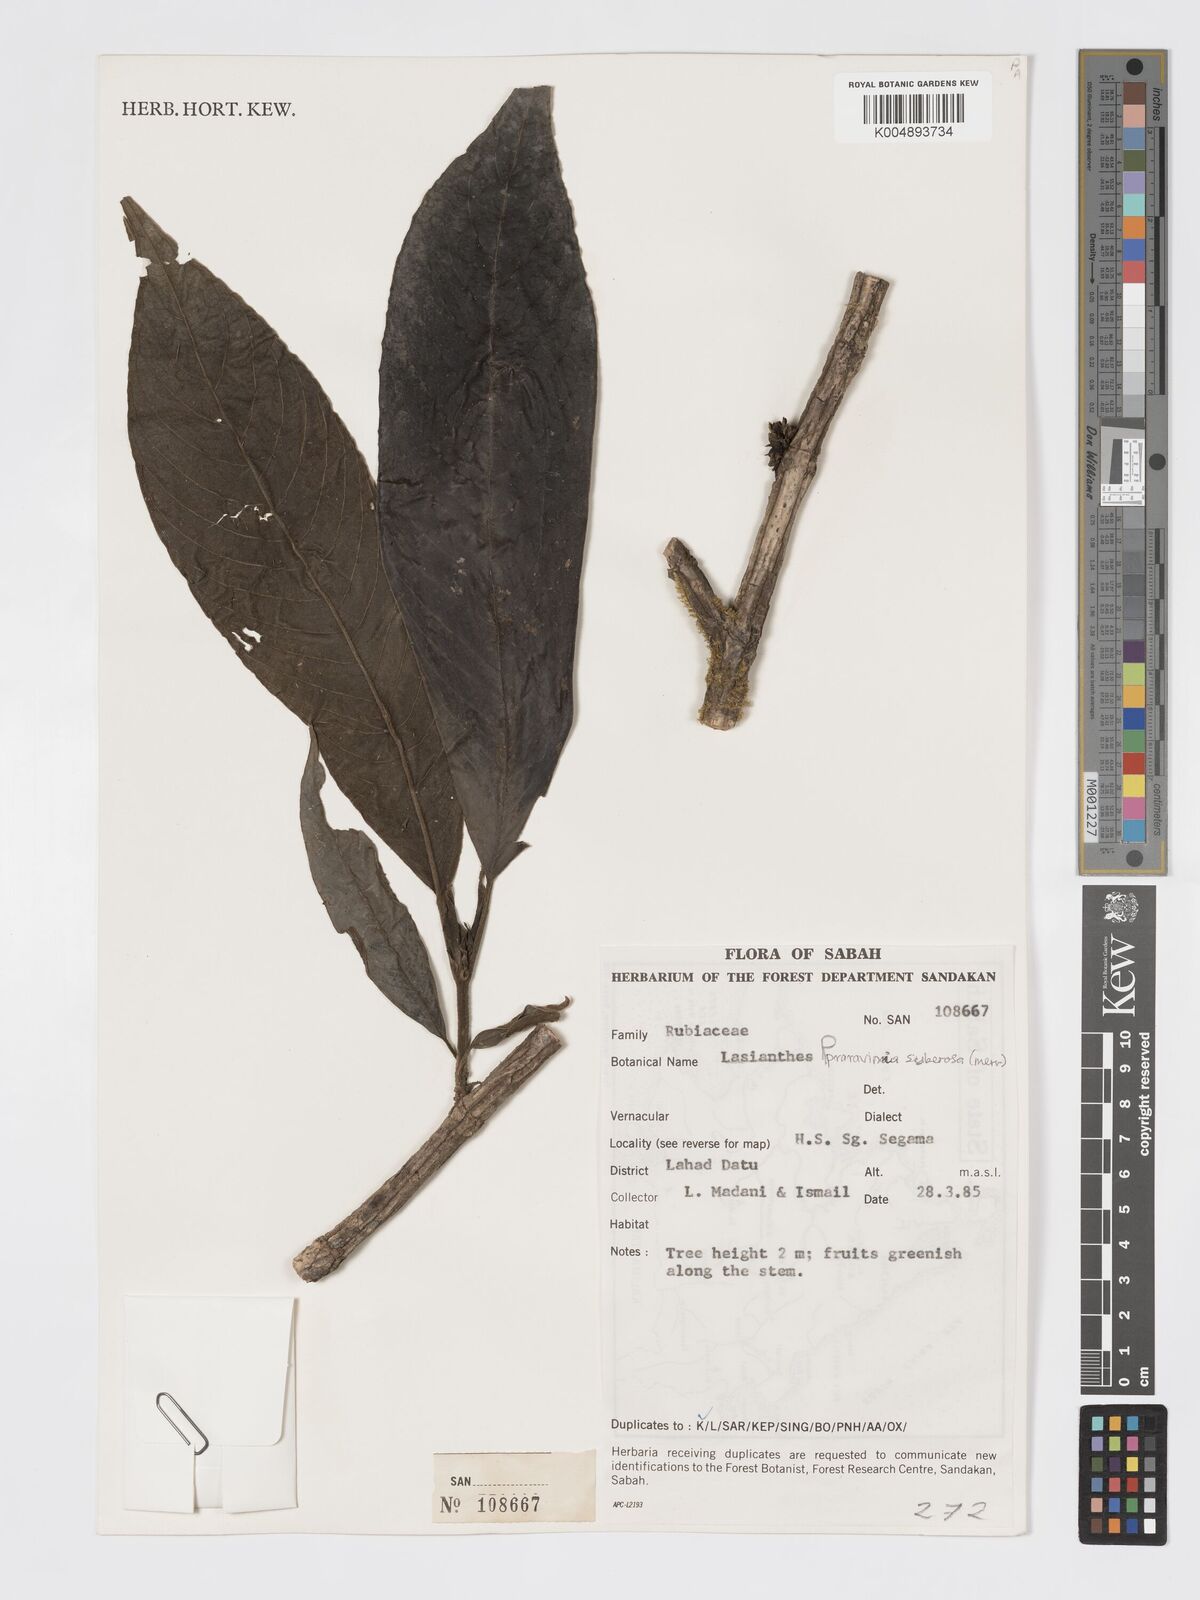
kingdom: Plantae
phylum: Tracheophyta
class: Magnoliopsida
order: Gentianales
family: Rubiaceae
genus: Praravinia
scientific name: Praravinia suberosa
